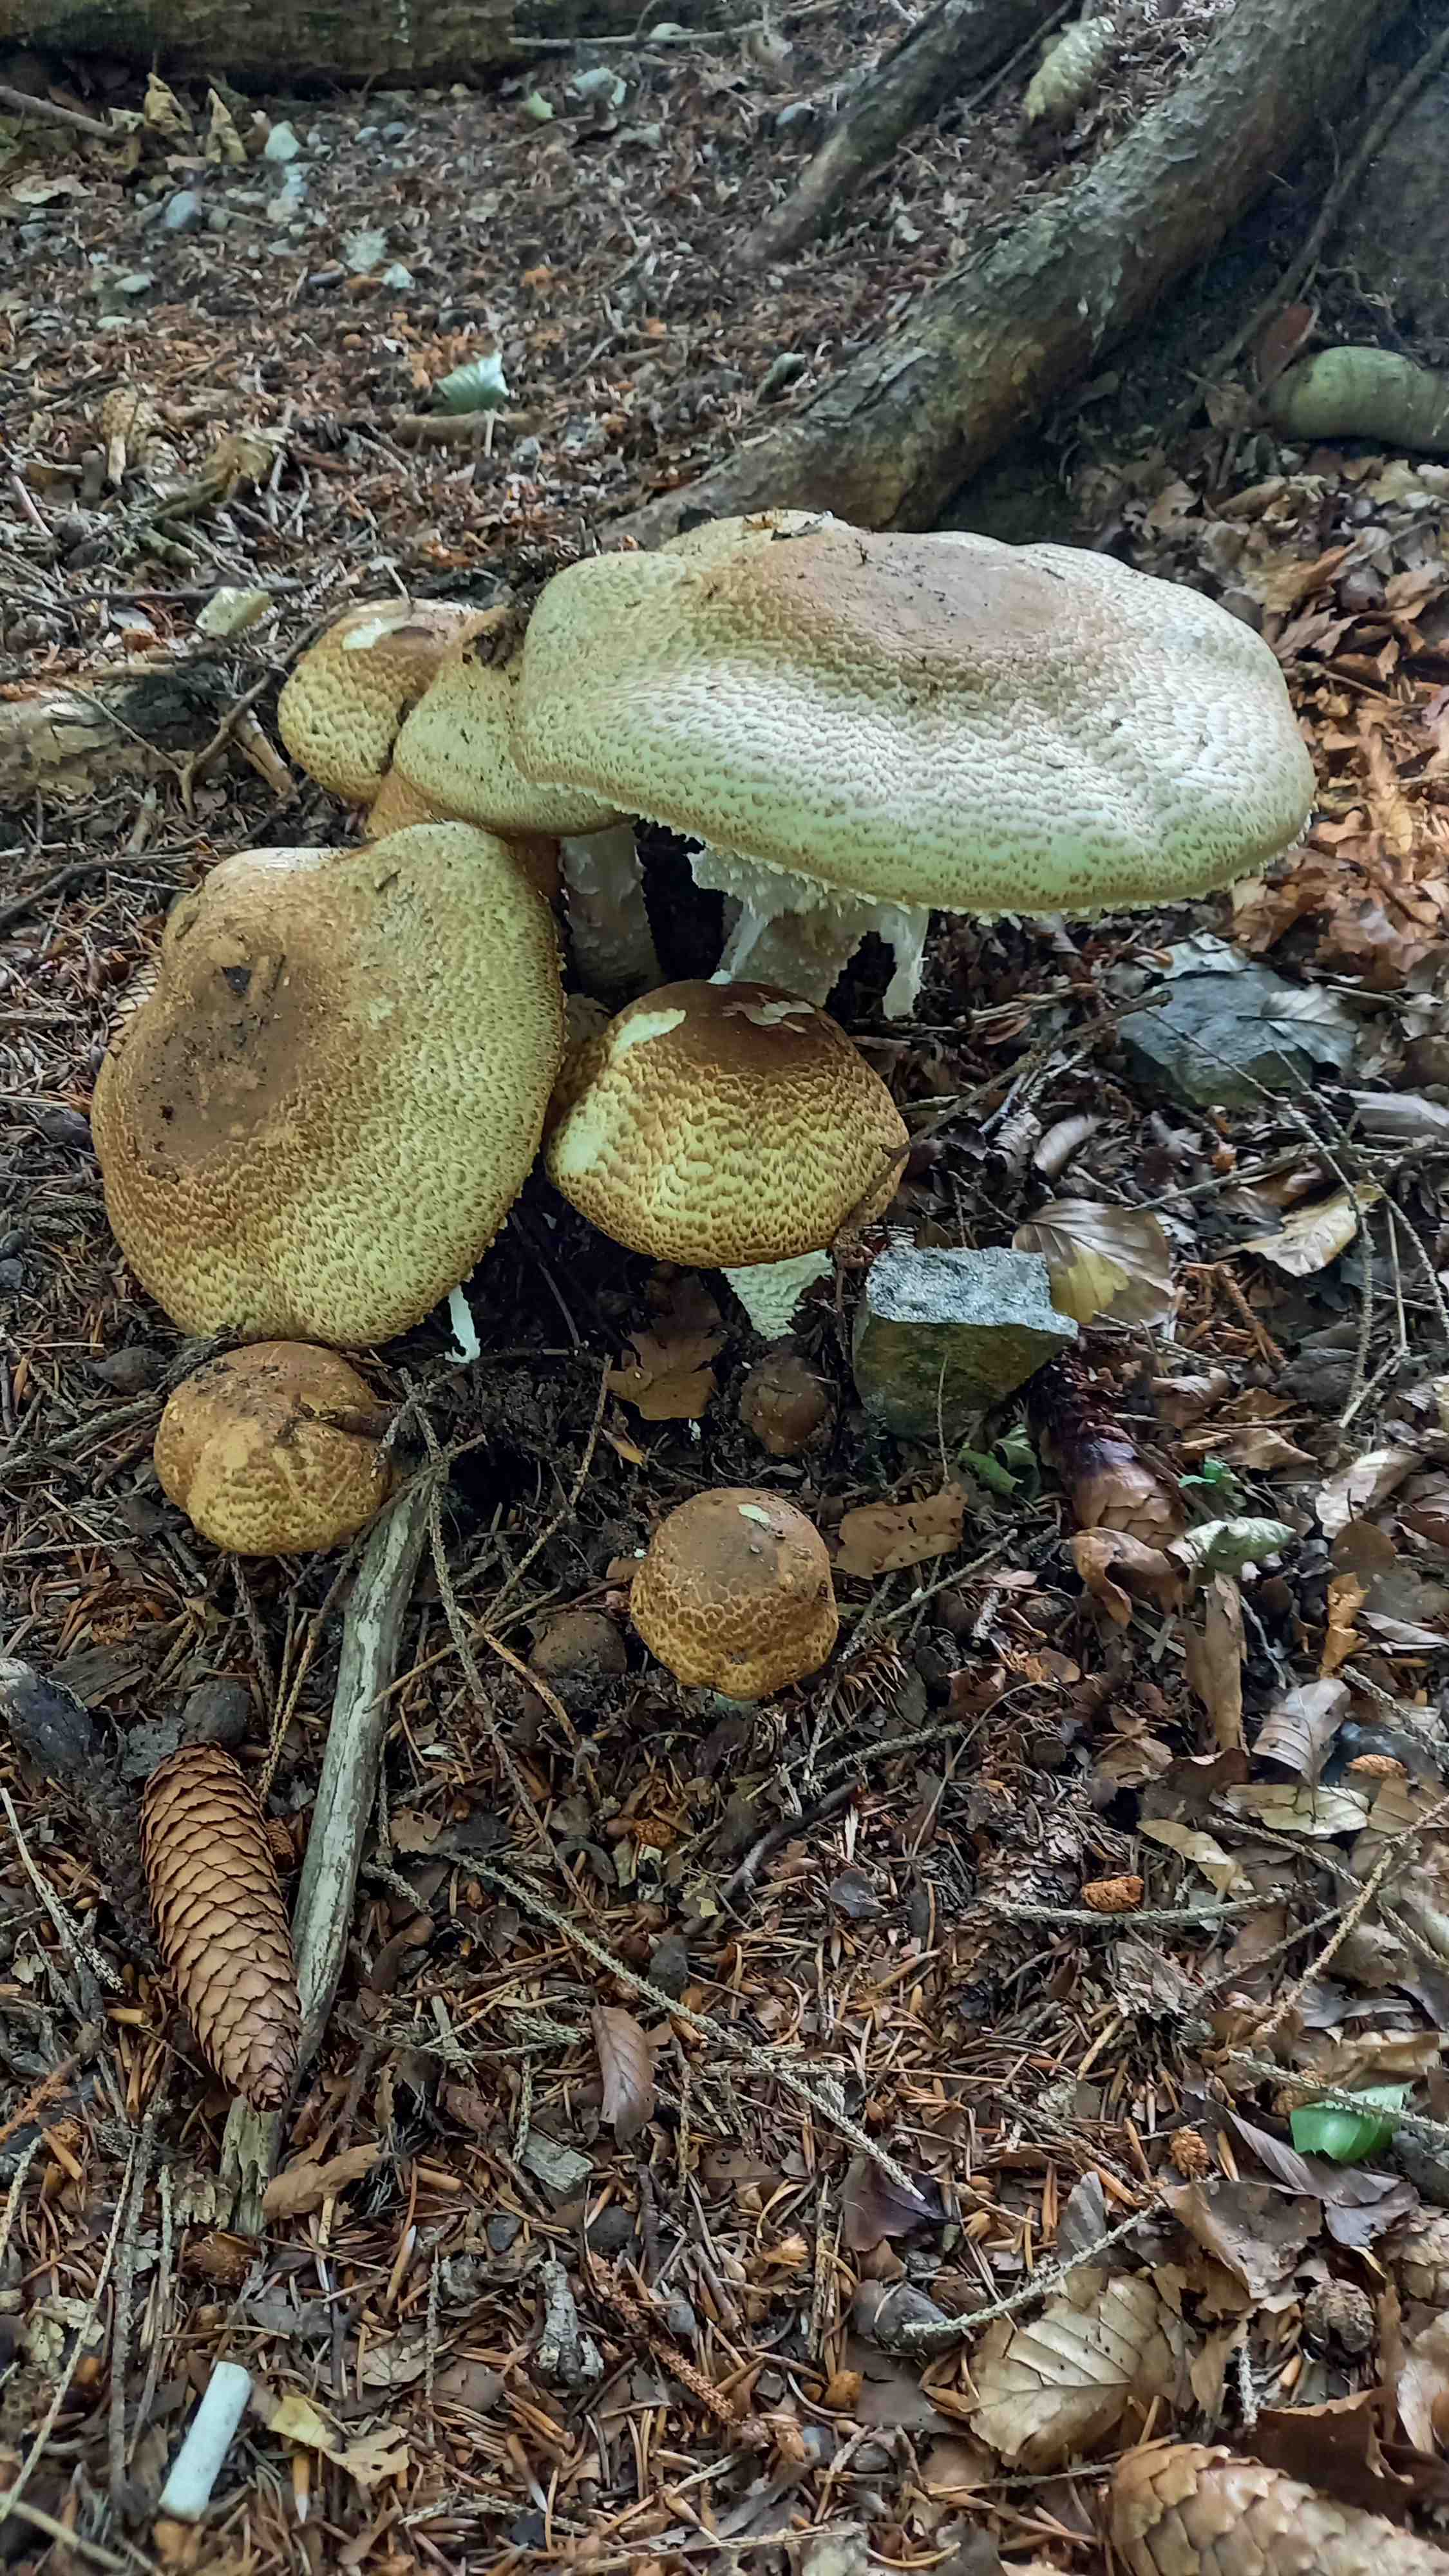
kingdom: Fungi
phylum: Basidiomycota
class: Agaricomycetes
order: Agaricales
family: Agaricaceae
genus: Agaricus
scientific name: Agaricus augustus
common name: prægtig champignon
